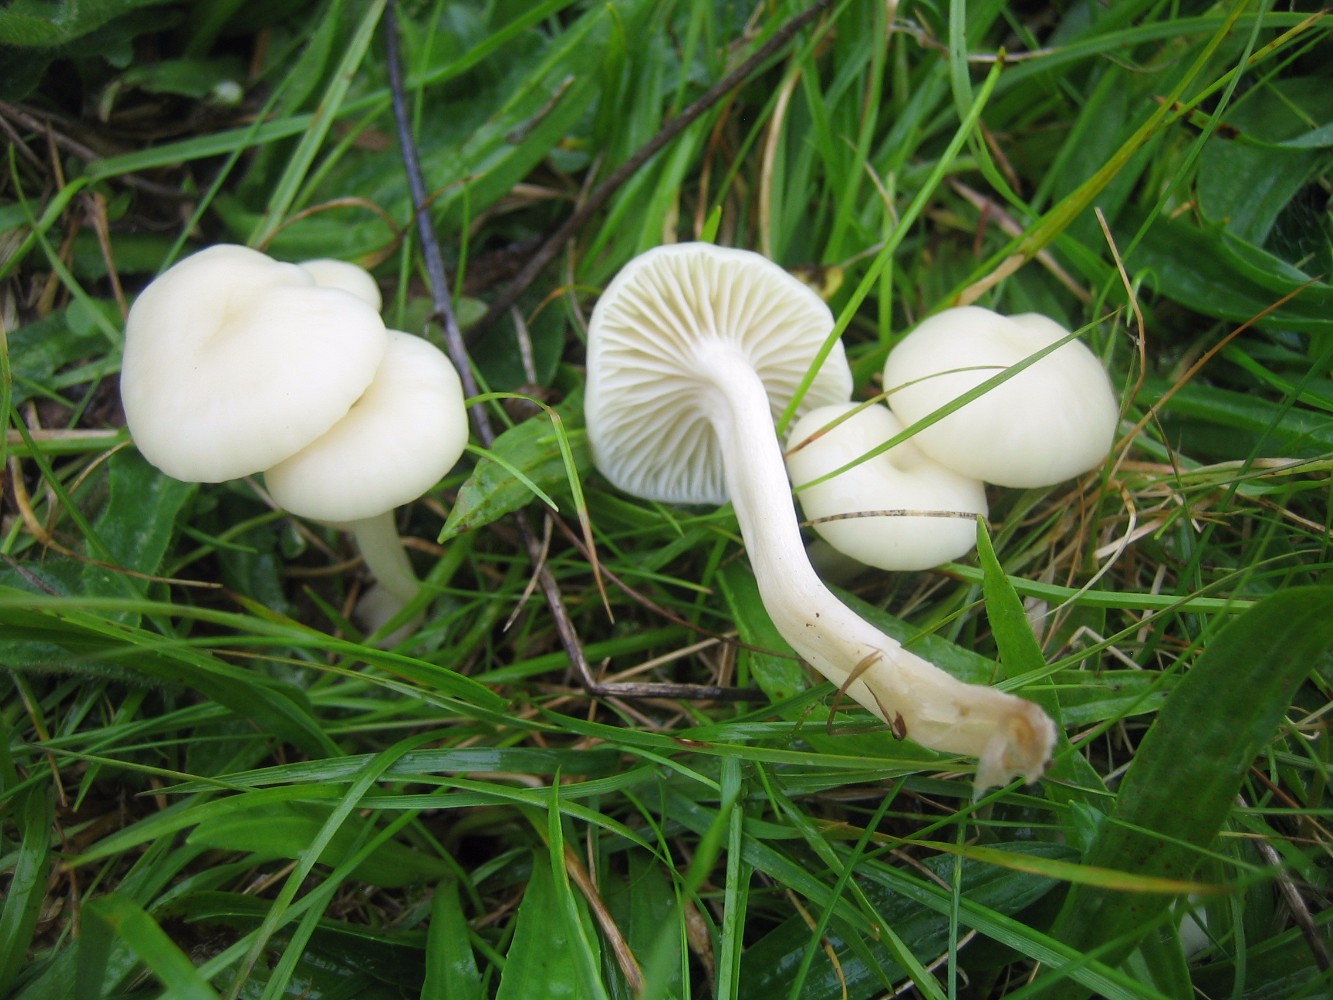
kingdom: Fungi
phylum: Basidiomycota
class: Agaricomycetes
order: Agaricales
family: Hygrophoraceae
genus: Cuphophyllus
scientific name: Cuphophyllus virgineus
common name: snehvid vokshat
